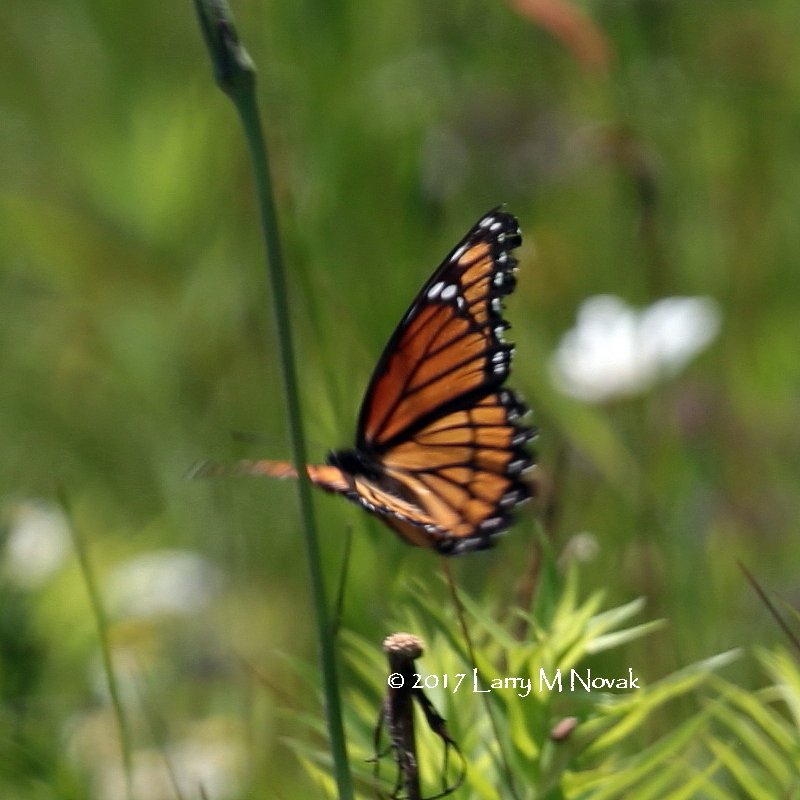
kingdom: Animalia
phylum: Arthropoda
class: Insecta
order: Lepidoptera
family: Nymphalidae
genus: Limenitis
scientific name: Limenitis archippus
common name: Viceroy
